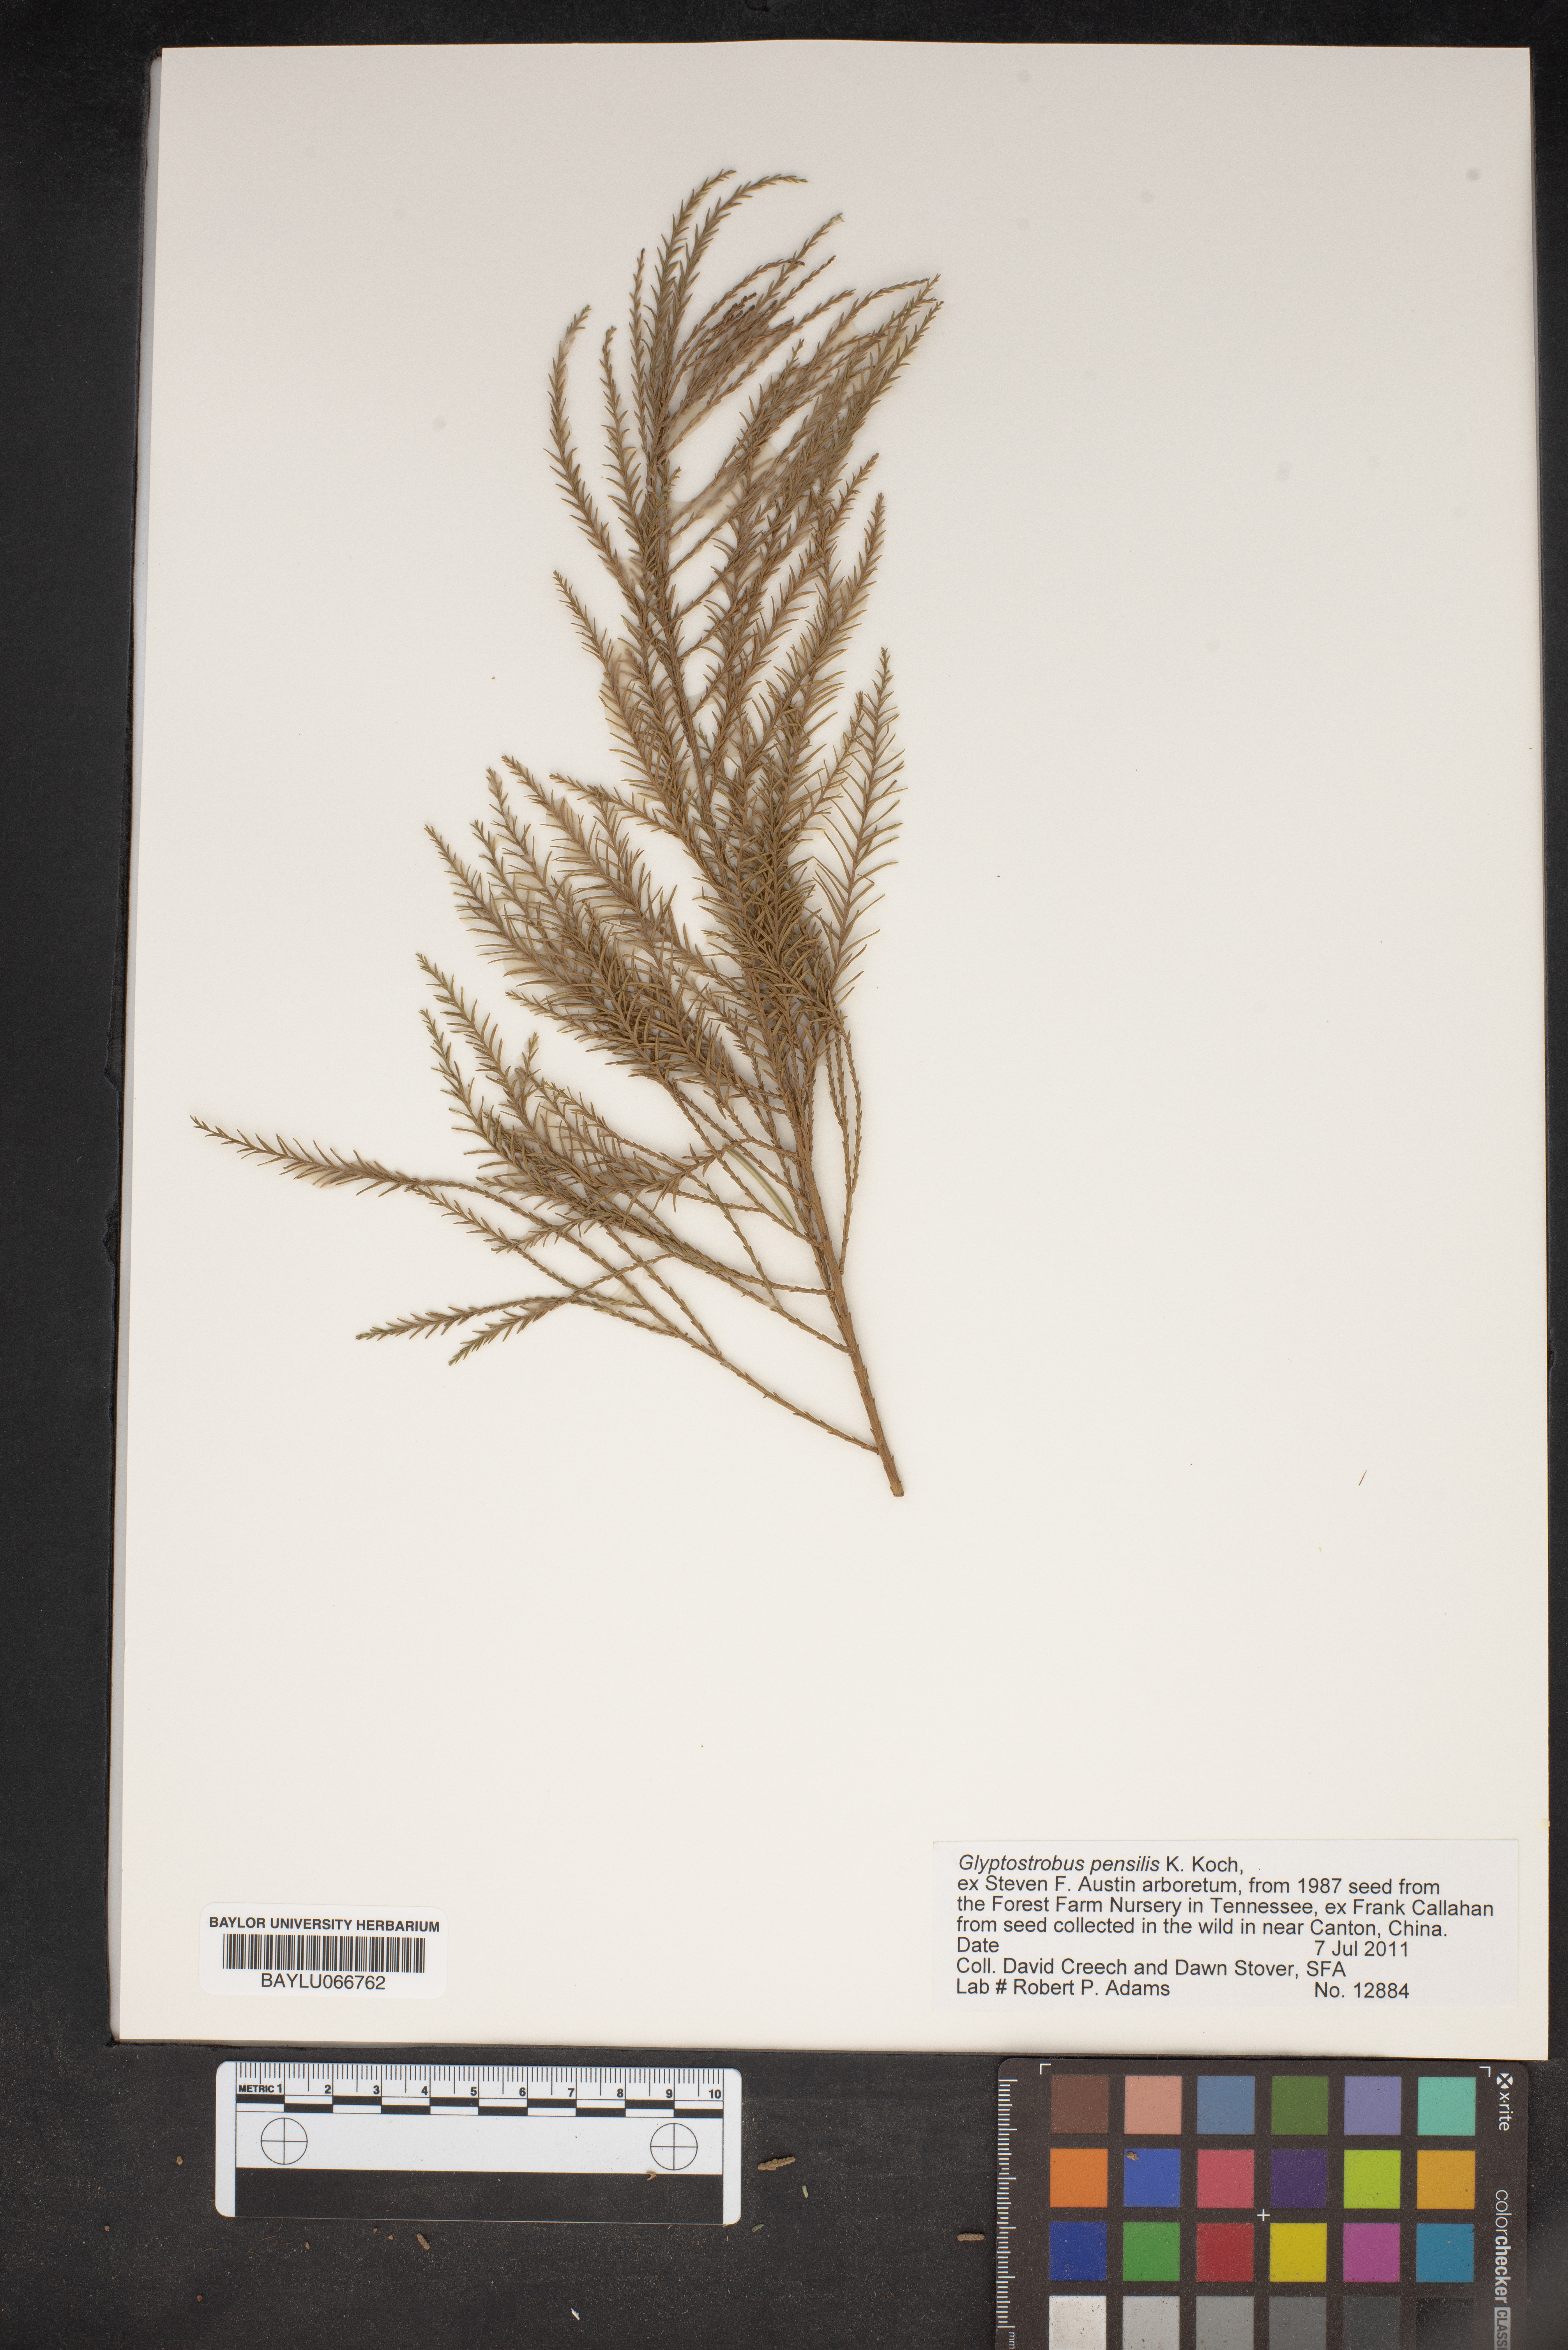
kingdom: Plantae
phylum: Tracheophyta
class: Pinopsida
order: Pinales
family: Cupressaceae
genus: Glyptostrobus
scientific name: Glyptostrobus pensilis
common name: Chines swamp cypress
